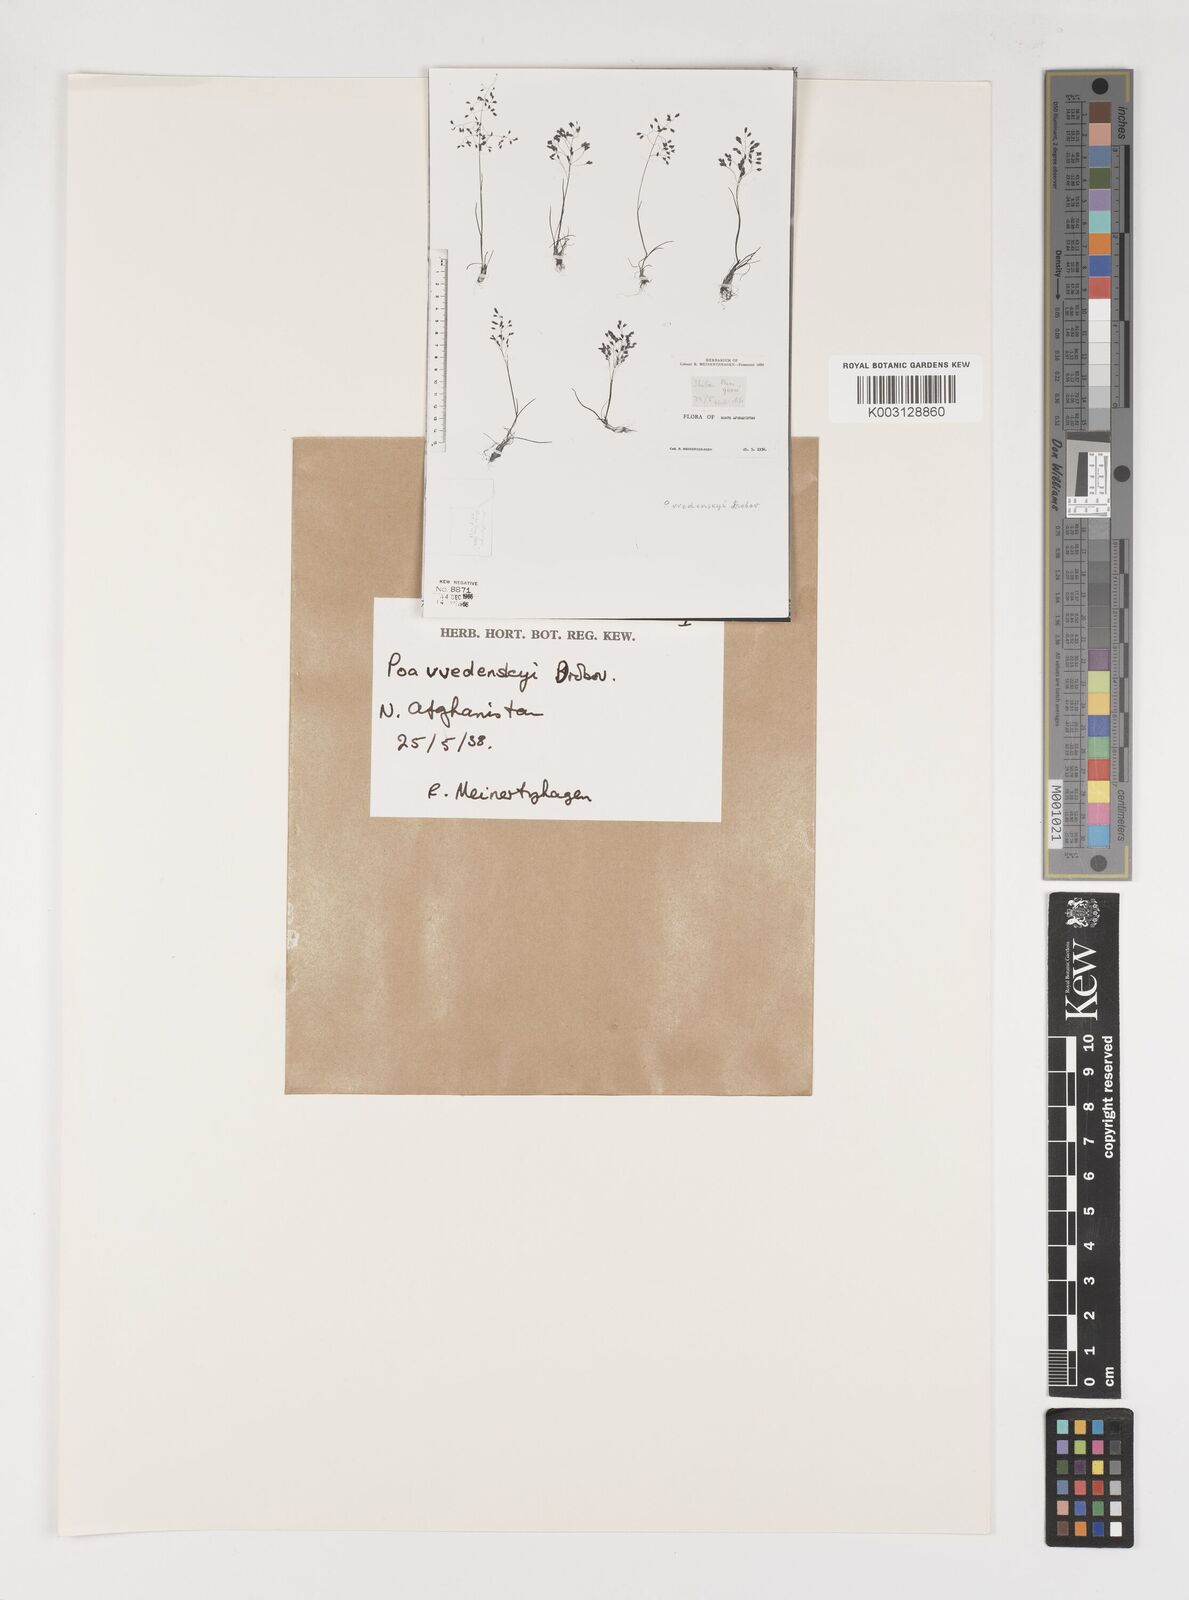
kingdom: Plantae
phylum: Tracheophyta
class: Liliopsida
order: Poales
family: Poaceae
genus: Poa
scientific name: Poa vvedenskyi
